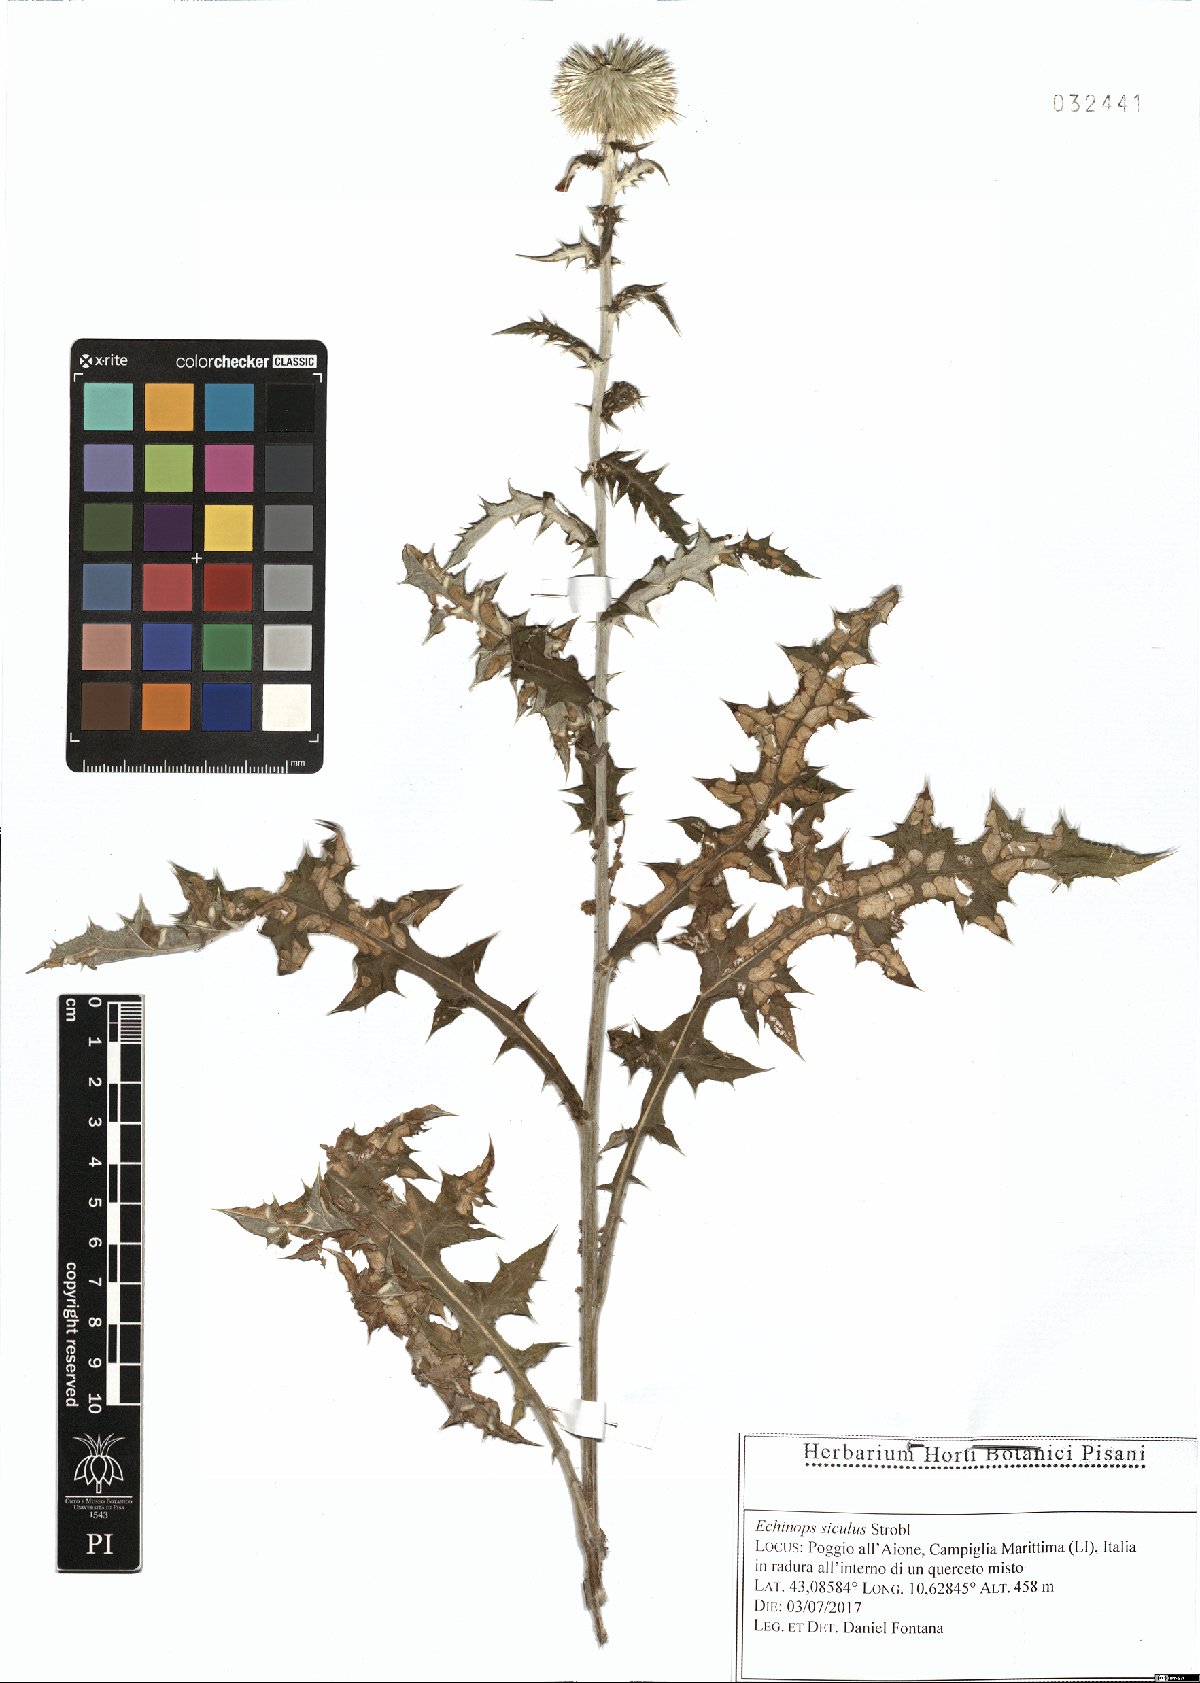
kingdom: Plantae
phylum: Tracheophyta
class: Magnoliopsida
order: Asterales
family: Asteraceae
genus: Echinops
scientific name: Echinops ritro
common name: Globe thistle
